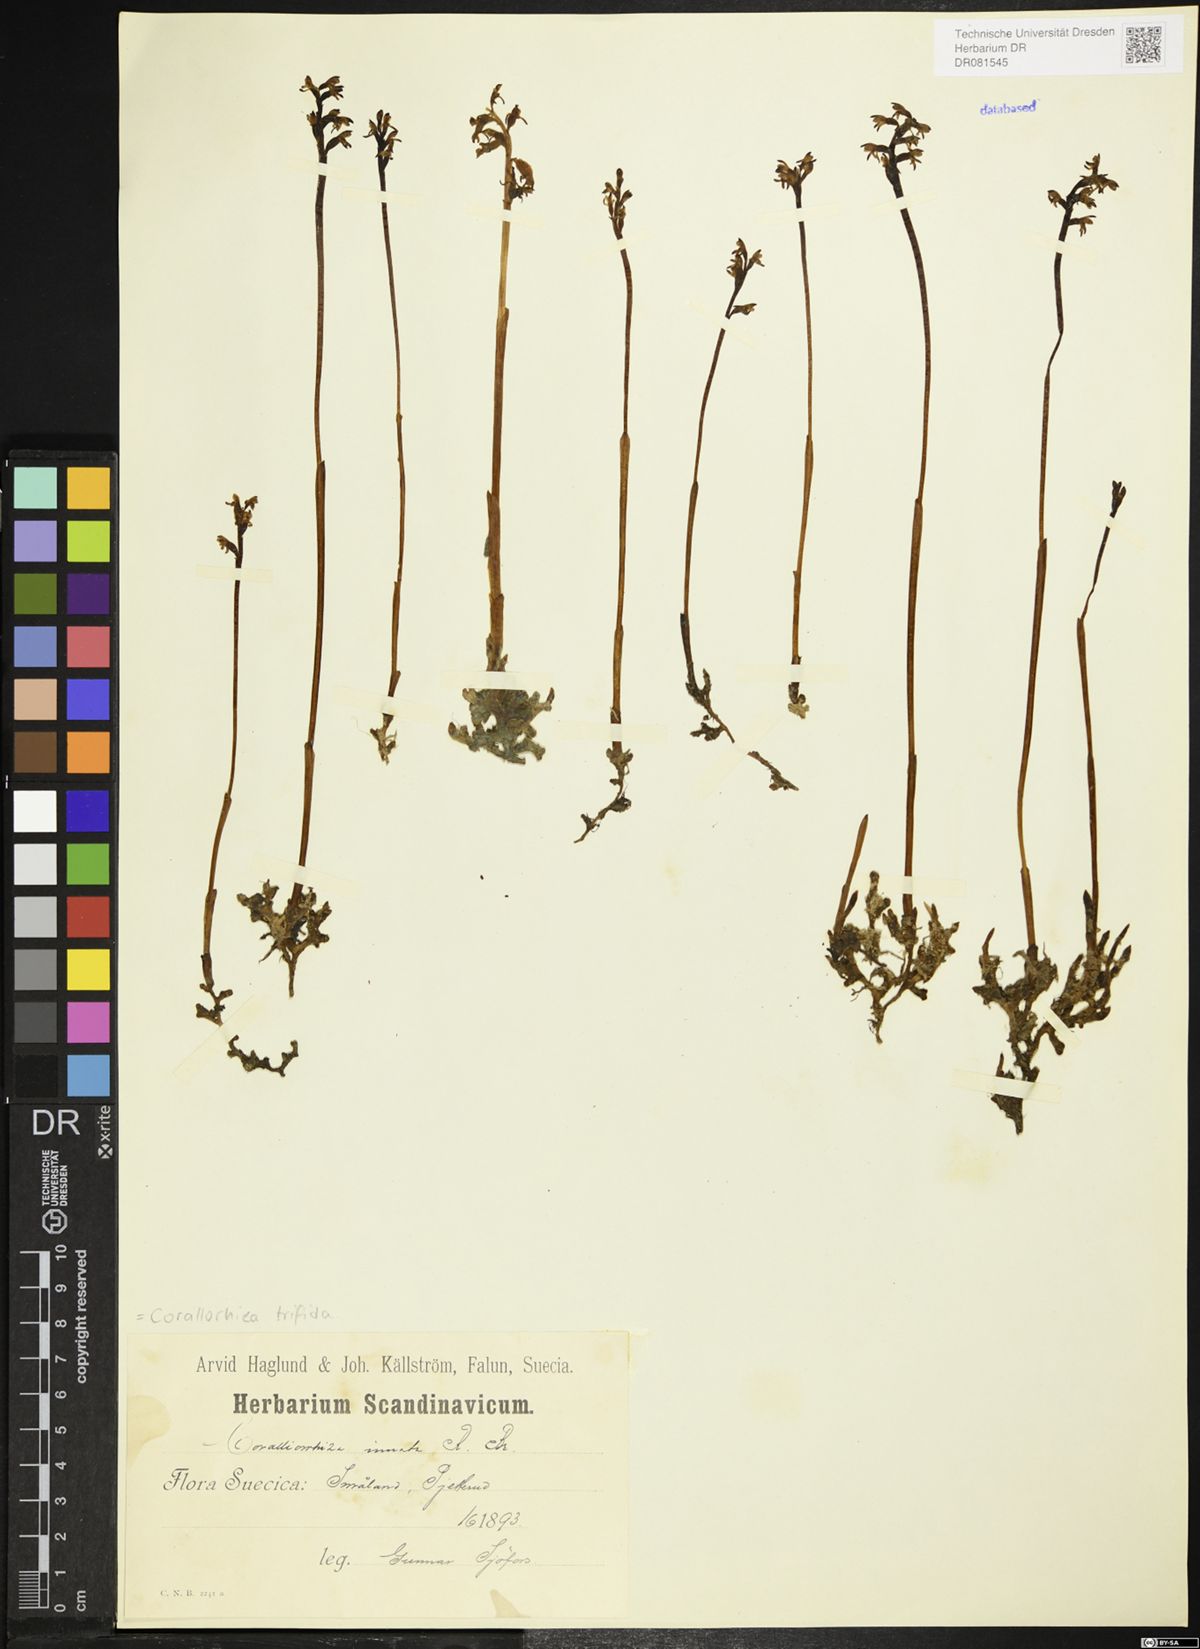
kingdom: Plantae
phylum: Tracheophyta
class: Liliopsida
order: Asparagales
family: Orchidaceae
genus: Corallorhiza
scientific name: Corallorhiza trifida
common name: Yellow coralroot
